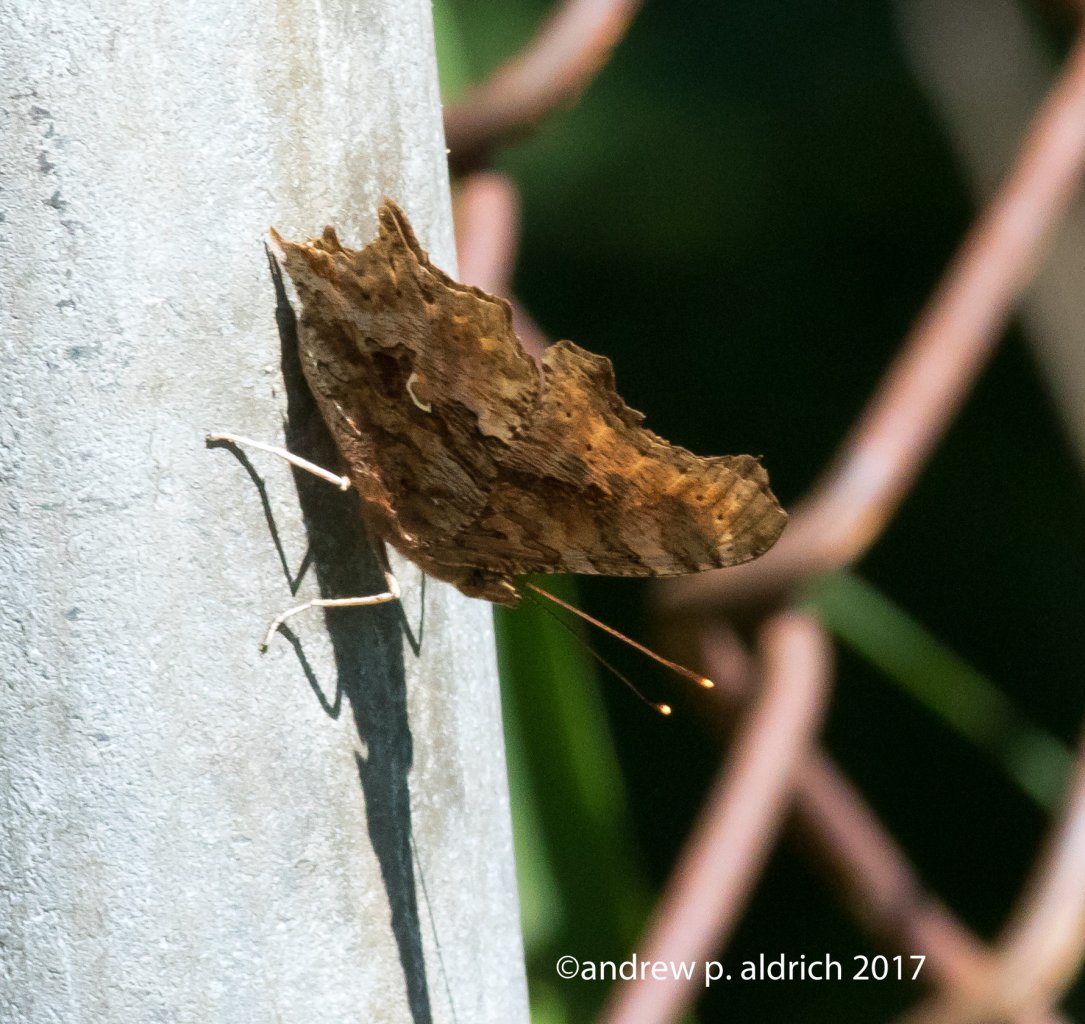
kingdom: Animalia
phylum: Arthropoda
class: Insecta
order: Lepidoptera
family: Nymphalidae
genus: Polygonia
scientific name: Polygonia comma
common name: Eastern Comma
